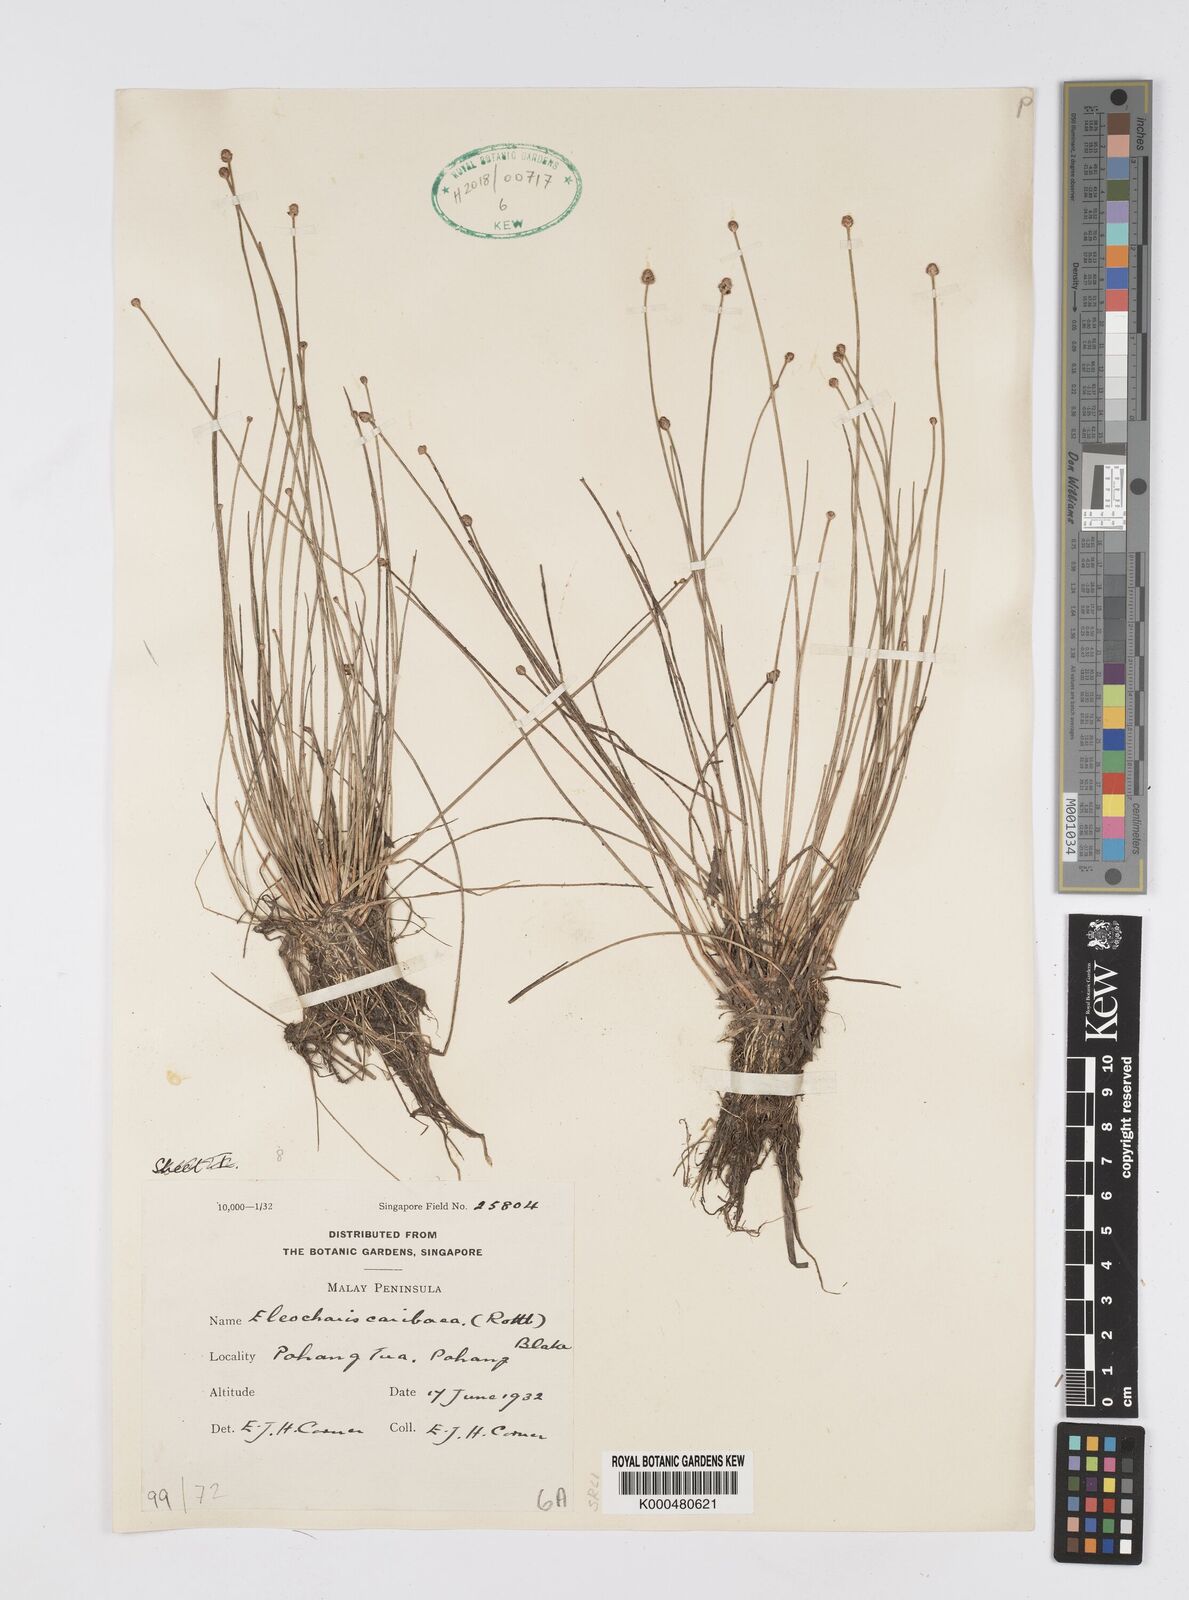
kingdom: Plantae
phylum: Tracheophyta
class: Liliopsida
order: Poales
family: Cyperaceae
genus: Eleocharis
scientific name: Eleocharis geniculata
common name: Canada spikesedge
